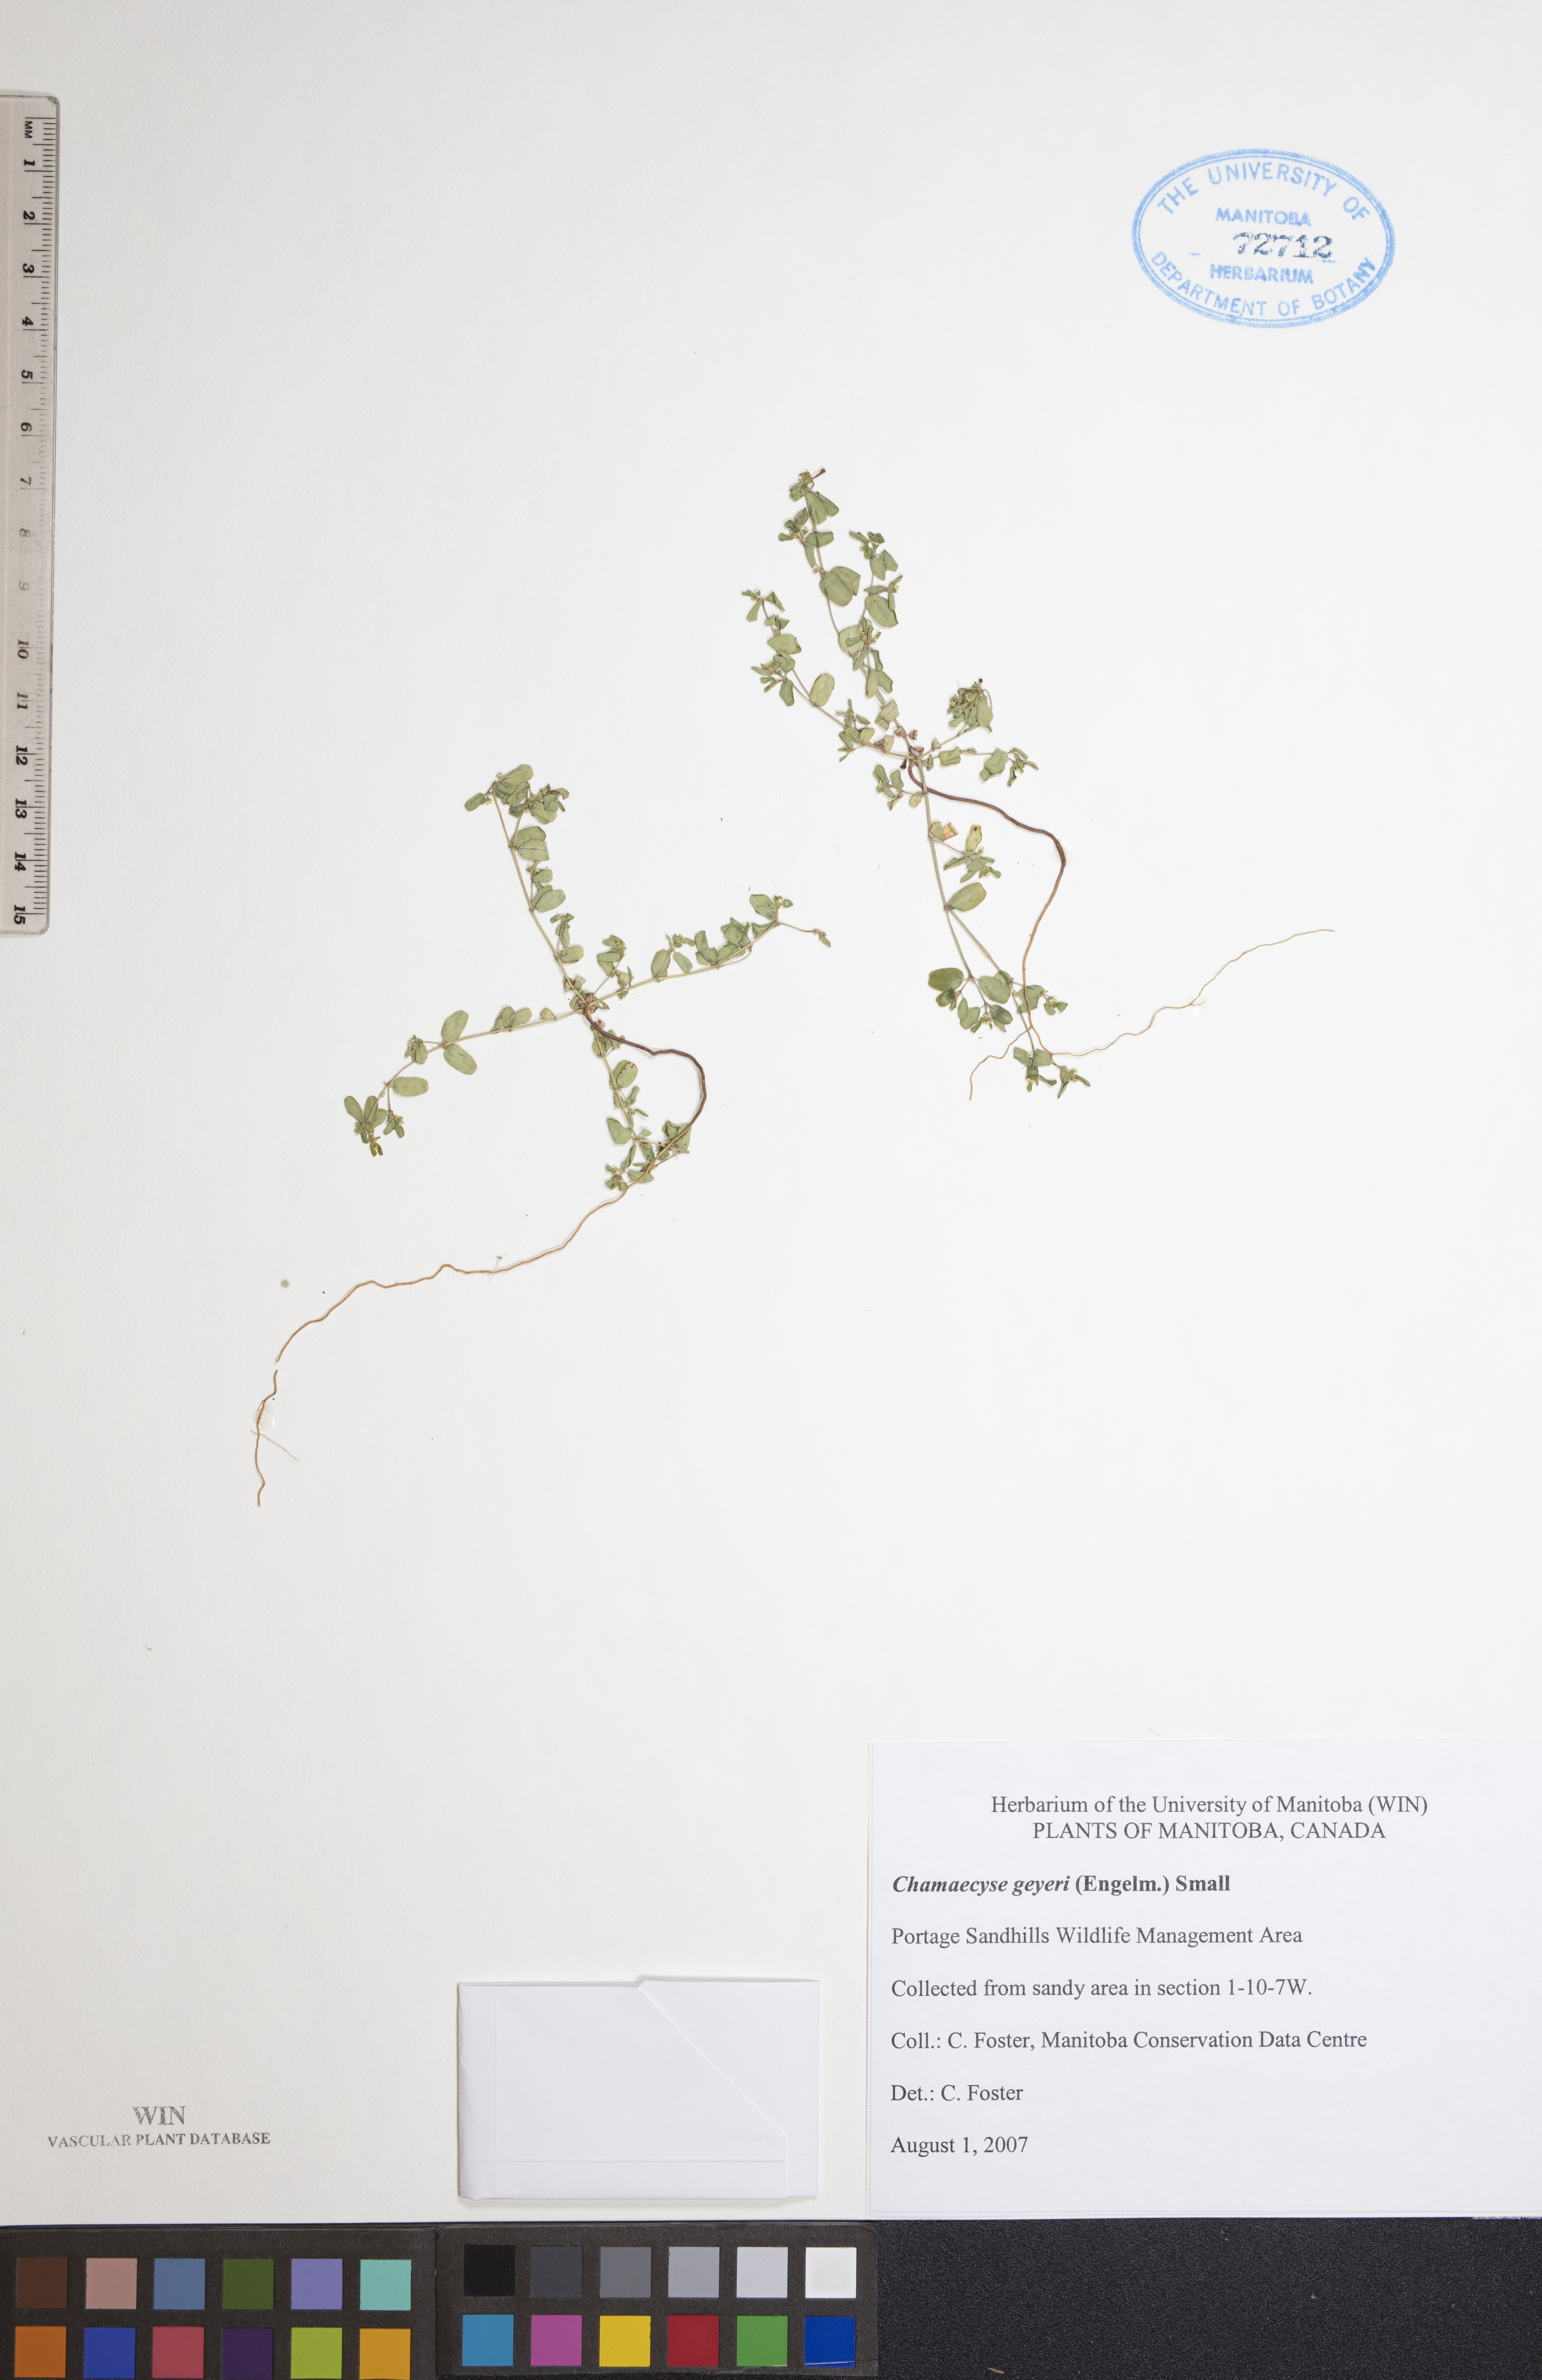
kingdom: Plantae
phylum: Tracheophyta
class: Magnoliopsida
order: Malpighiales
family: Euphorbiaceae
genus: Euphorbia
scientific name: Euphorbia geyeri
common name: Geyer's spurge
